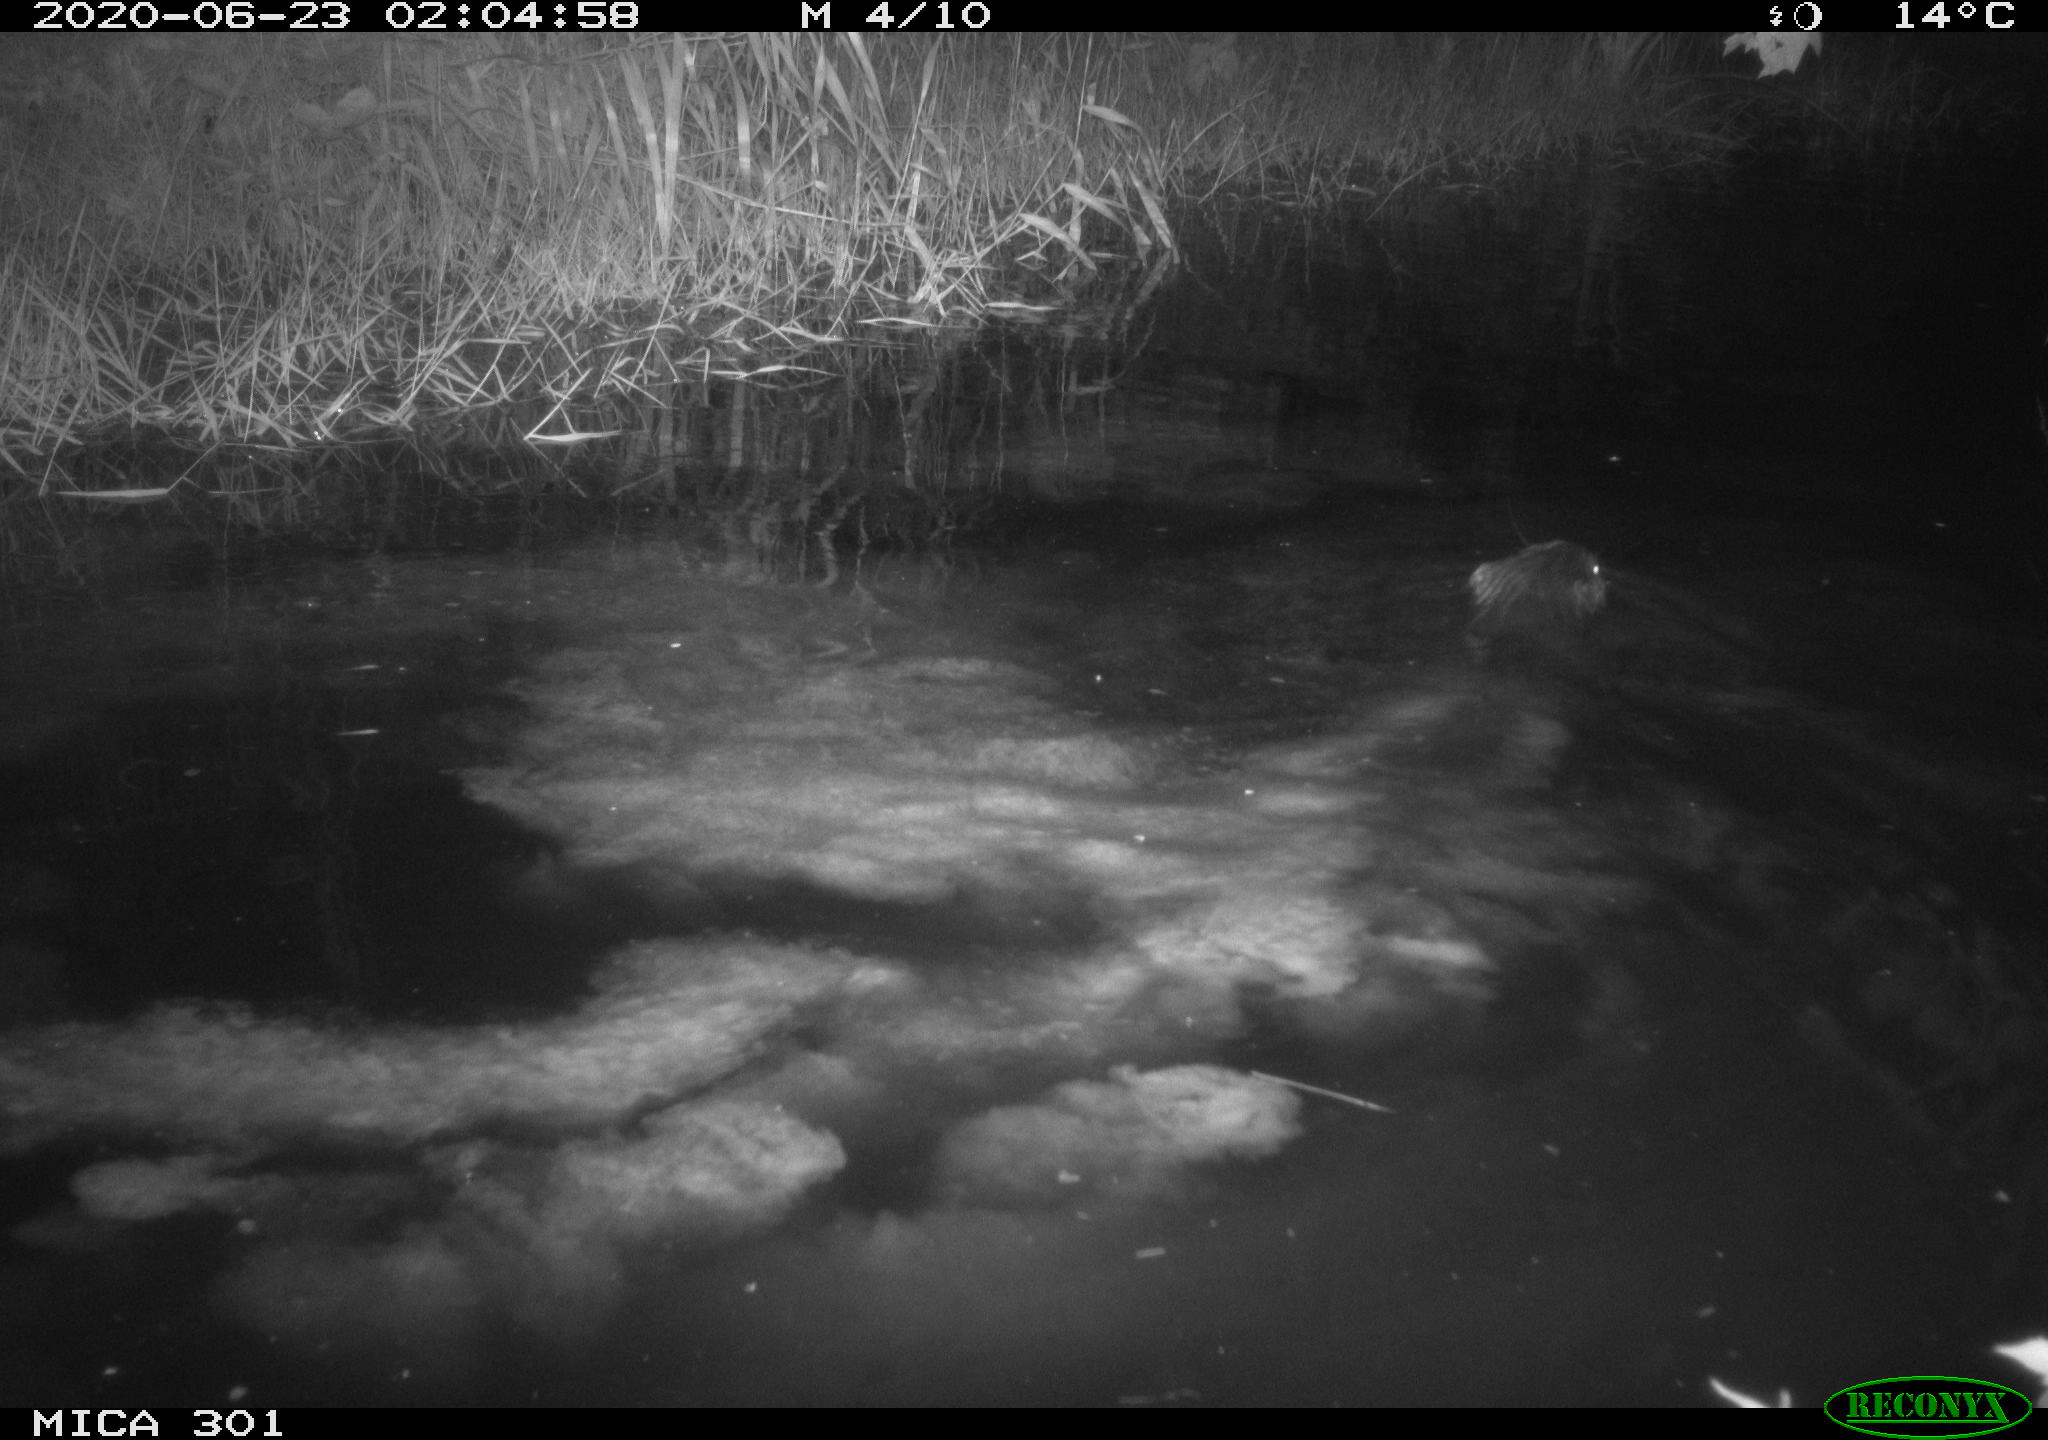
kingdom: Animalia
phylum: Chordata
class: Mammalia
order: Rodentia
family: Castoridae
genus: Castor
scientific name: Castor fiber
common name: Eurasian beaver
